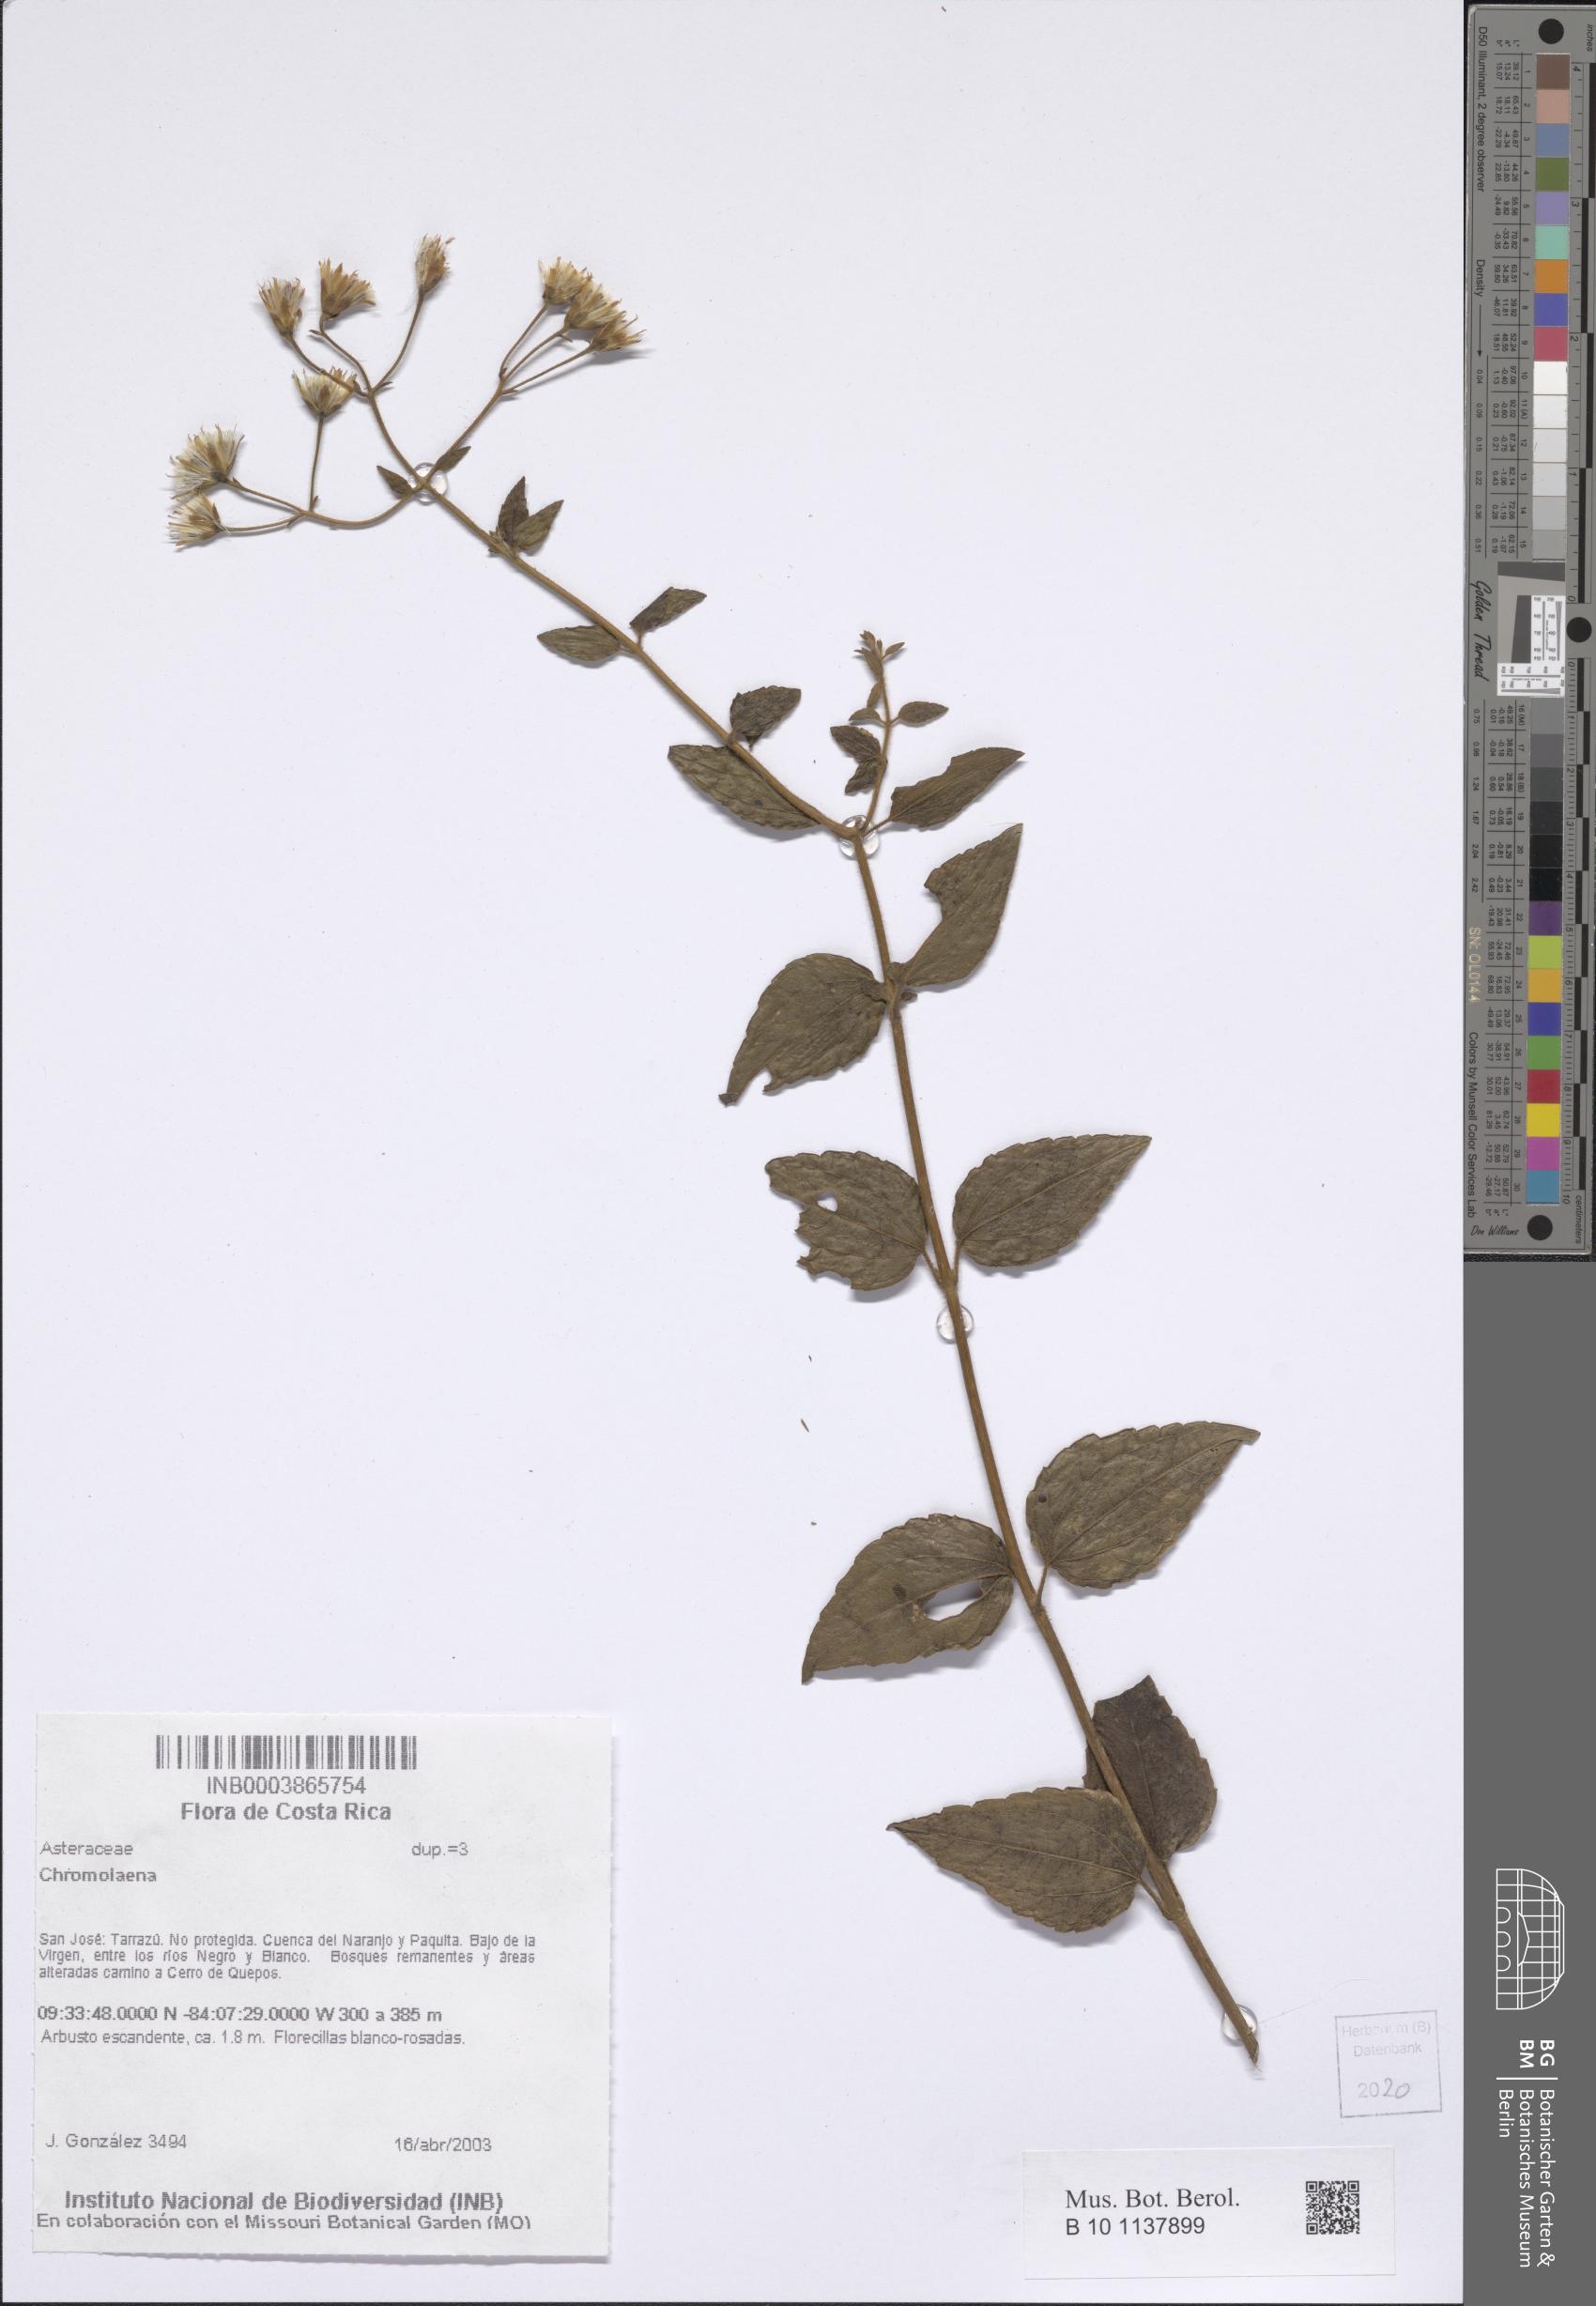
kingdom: Plantae
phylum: Tracheophyta
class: Magnoliopsida
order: Asterales
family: Asteraceae
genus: Chromolaena
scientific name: Chromolaena
